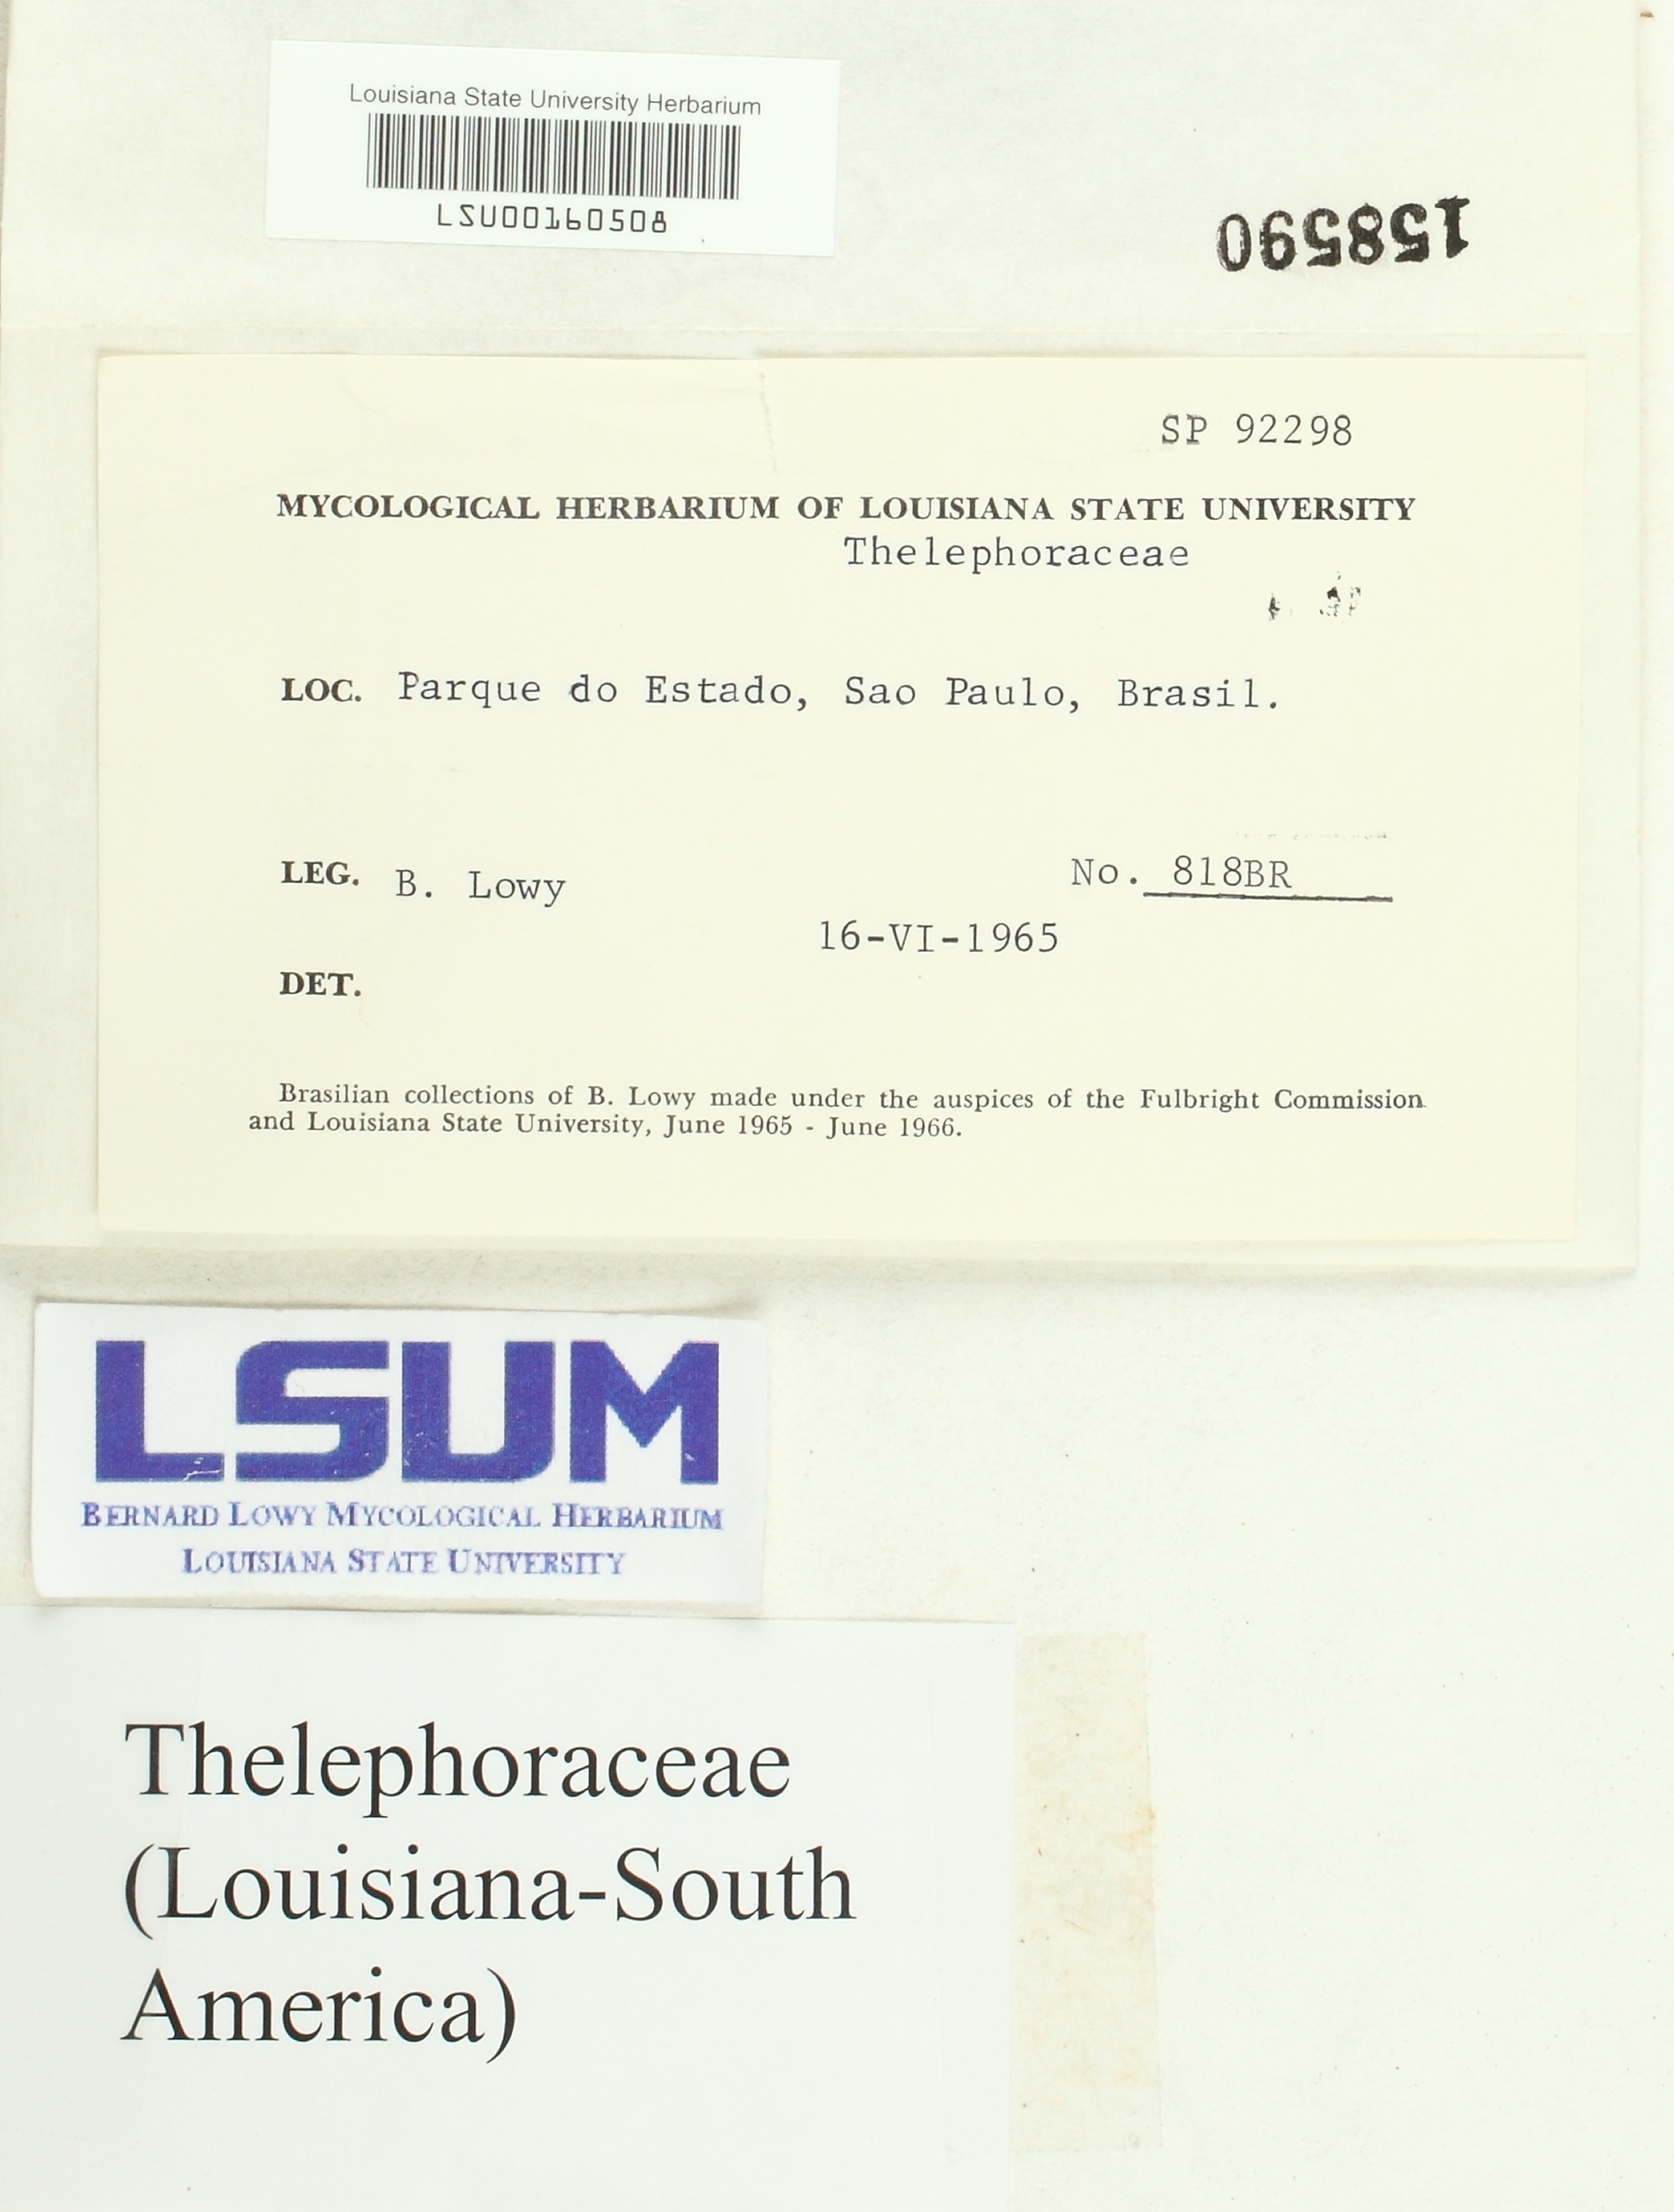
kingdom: Fungi
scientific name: Fungi
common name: Fungi
